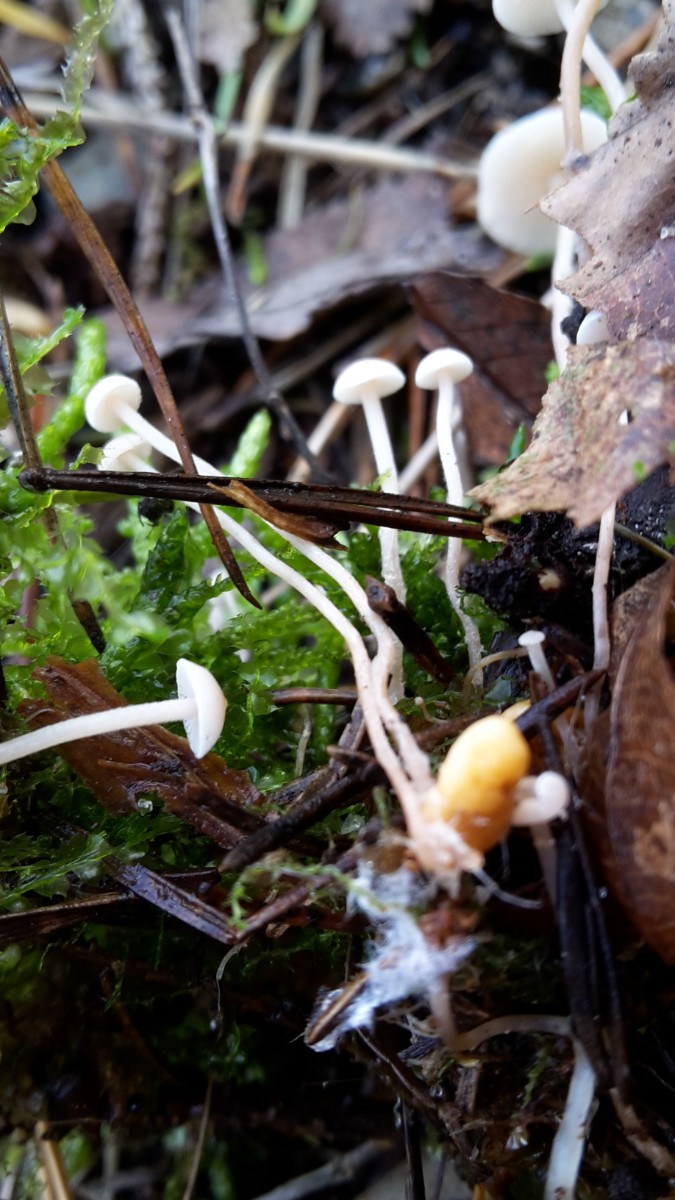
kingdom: Fungi
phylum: Basidiomycota
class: Agaricomycetes
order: Agaricales
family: Tricholomataceae
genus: Collybia
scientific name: Collybia cookei
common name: gulknoldet lighat
